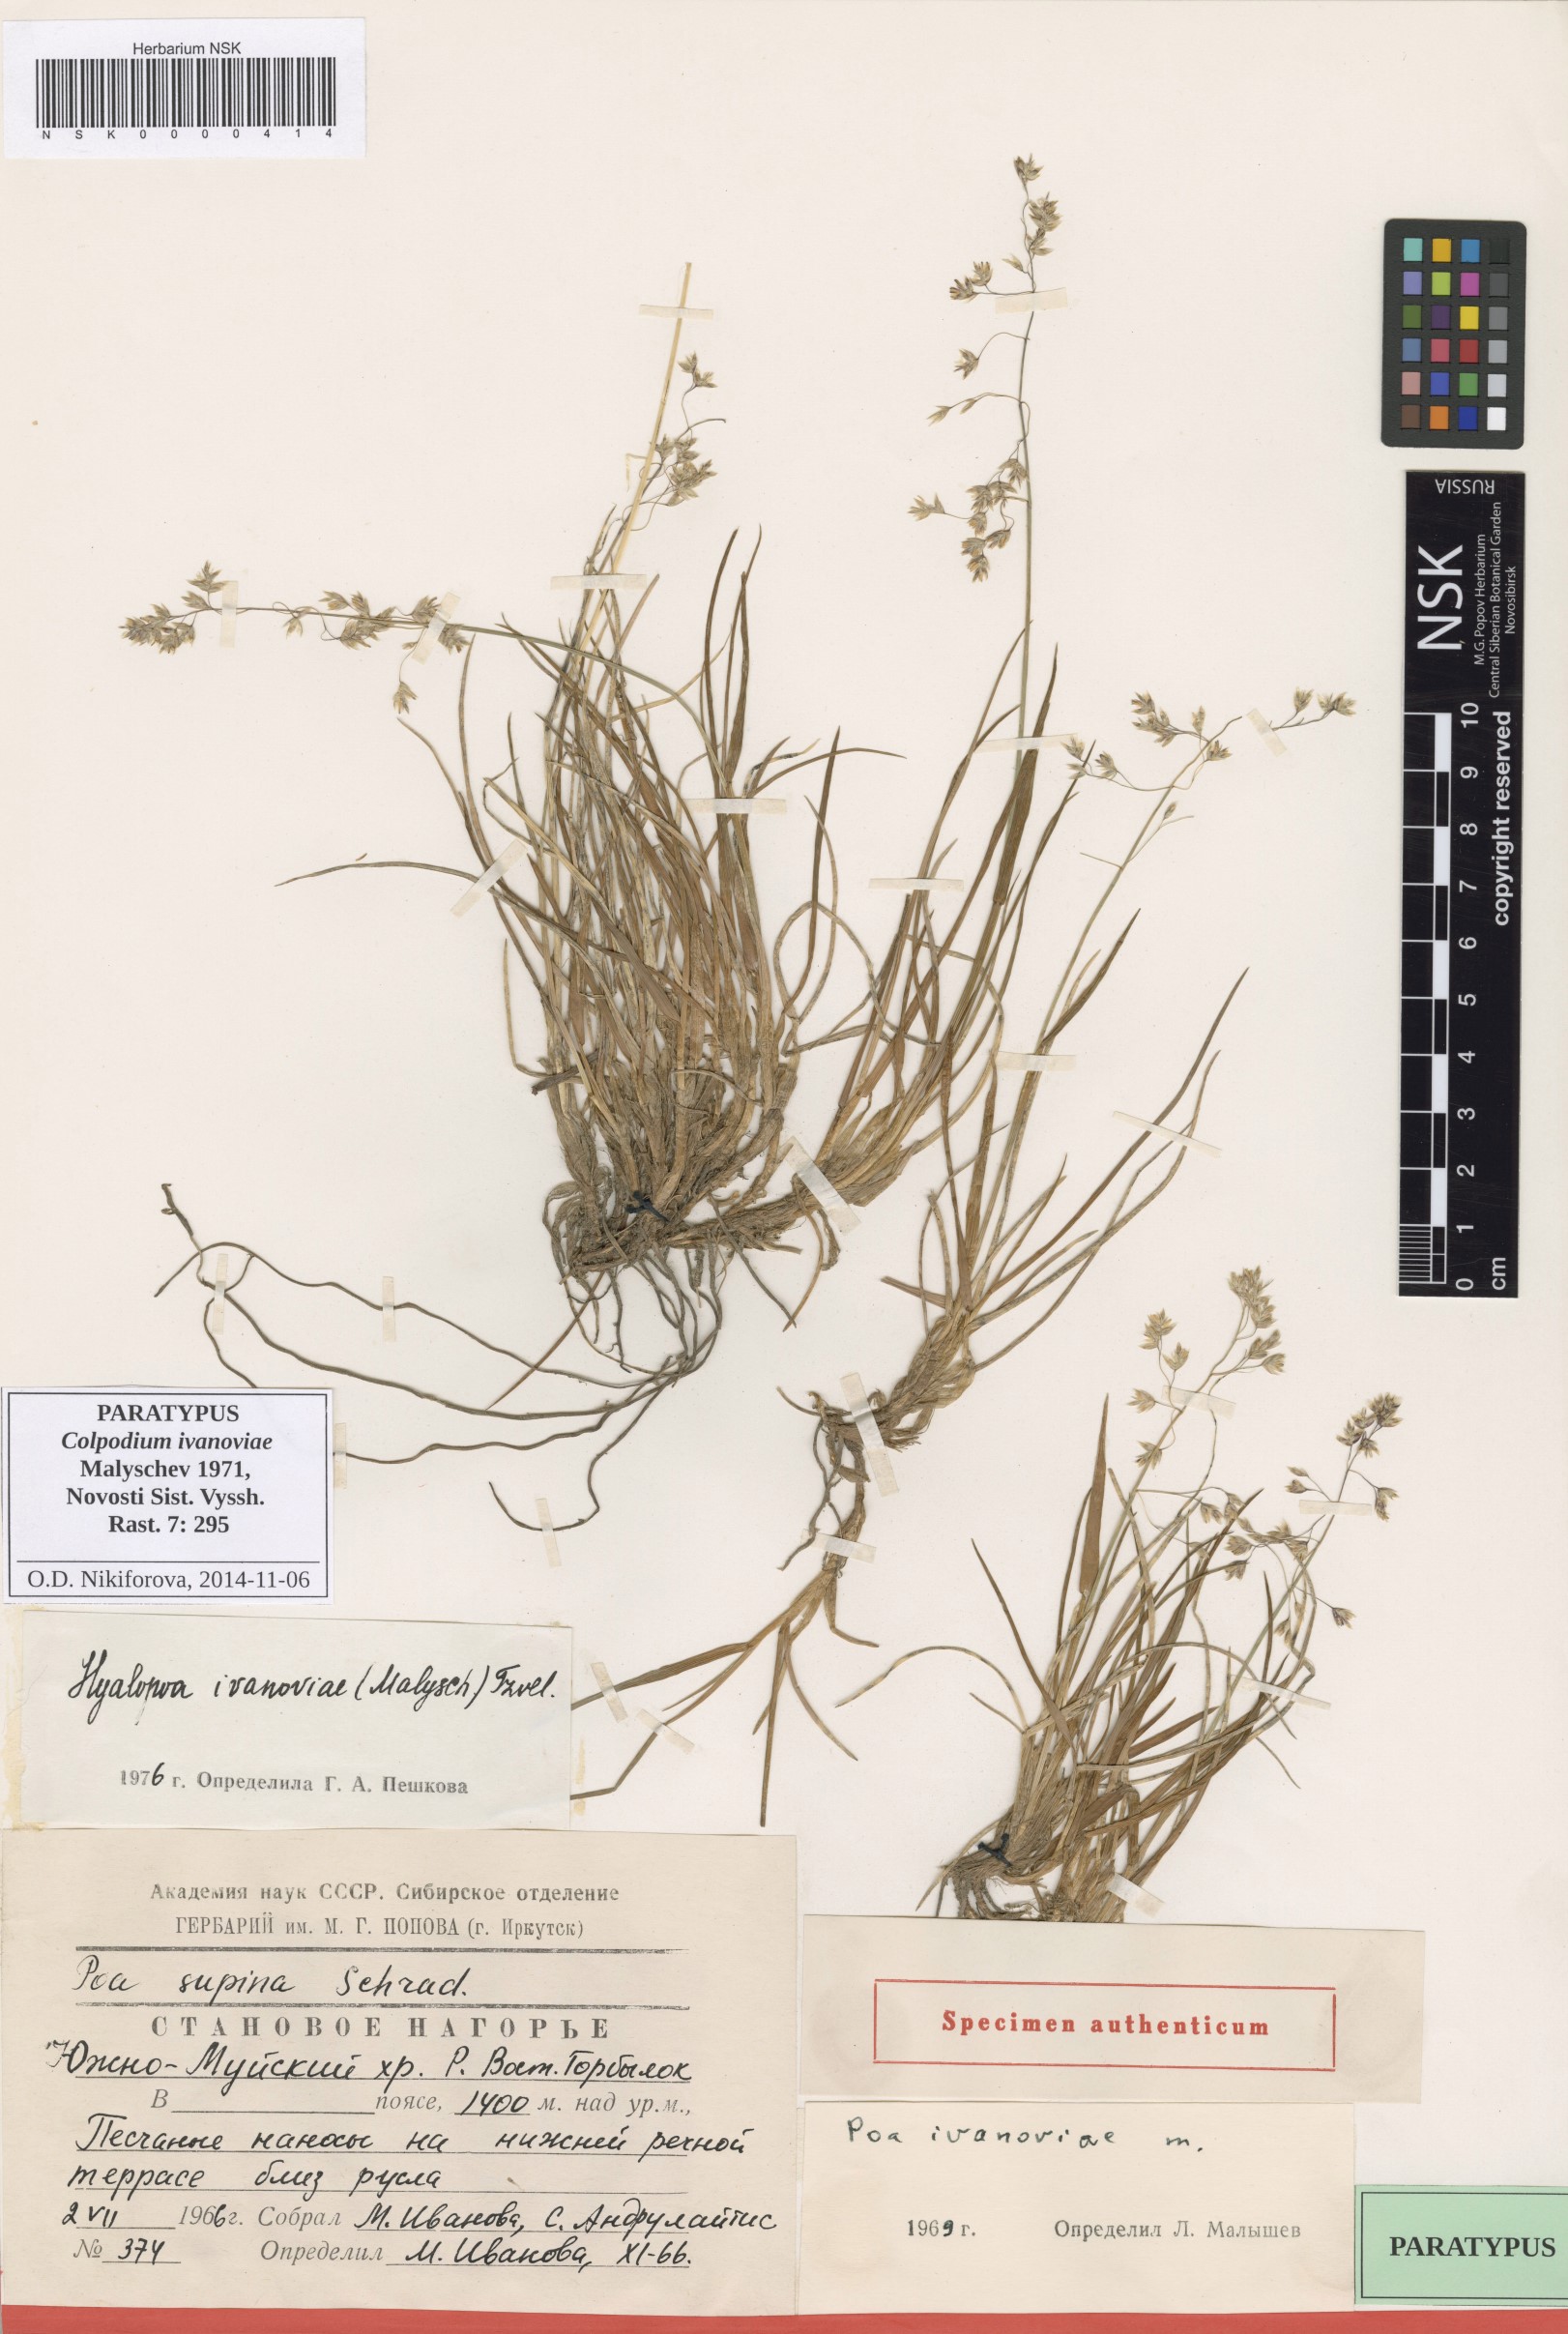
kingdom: Plantae
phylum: Tracheophyta
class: Liliopsida
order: Poales
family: Poaceae
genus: Arctohyalopoa
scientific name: Arctohyalopoa lanatiflora
